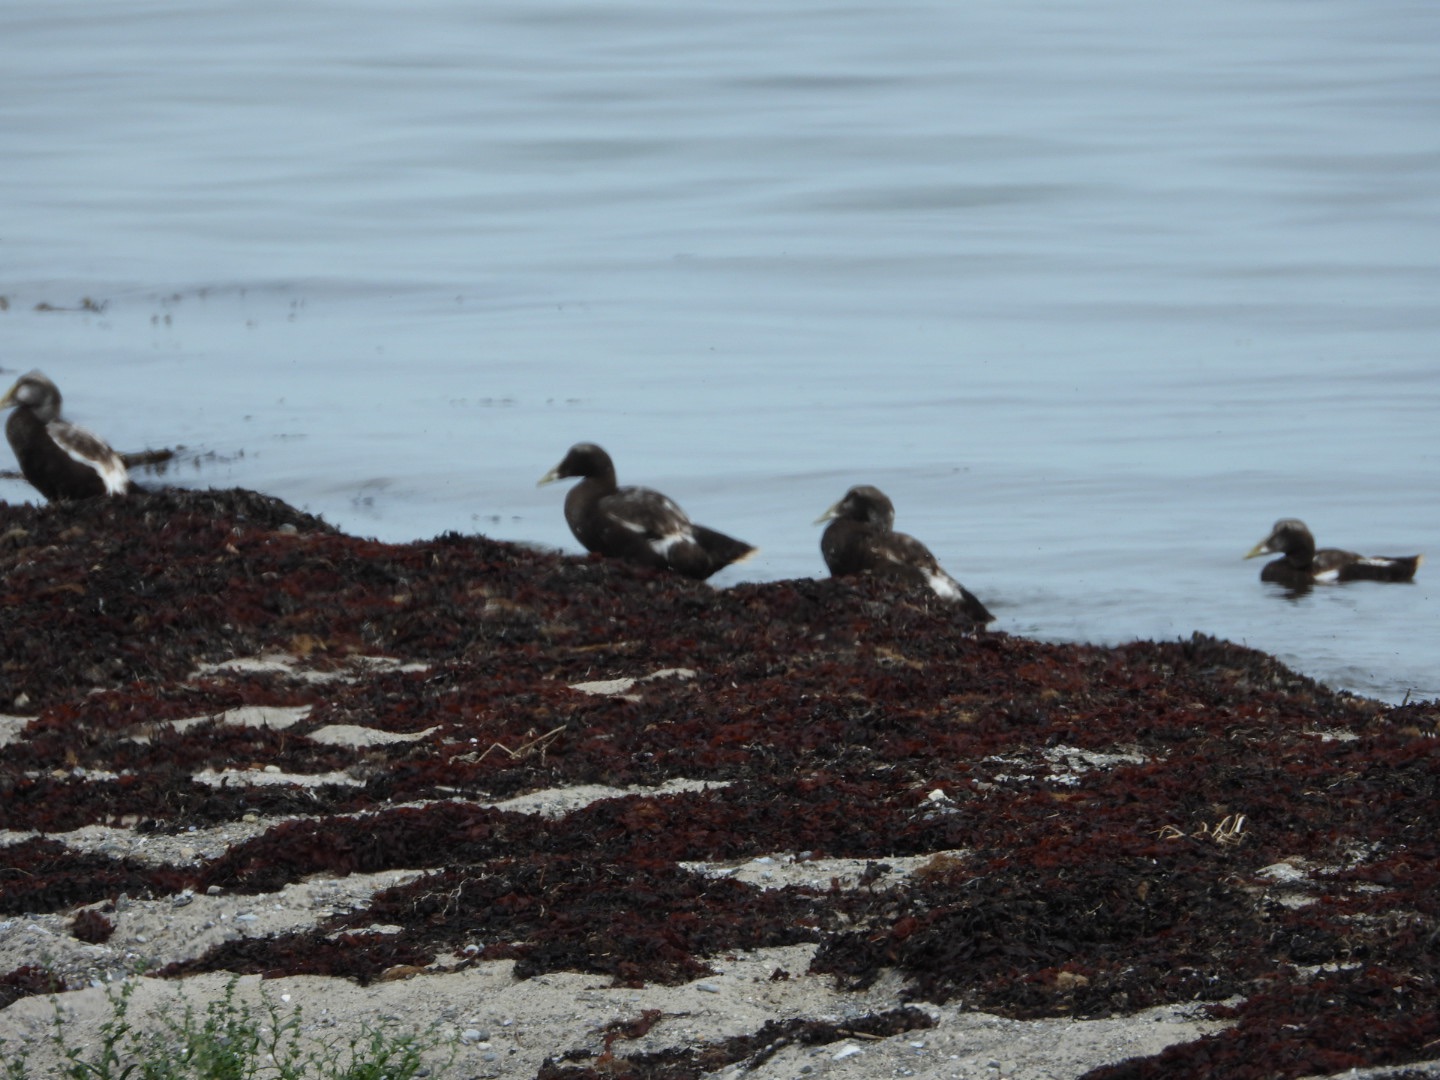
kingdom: Animalia
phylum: Chordata
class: Aves
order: Anseriformes
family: Anatidae
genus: Somateria
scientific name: Somateria mollissima
